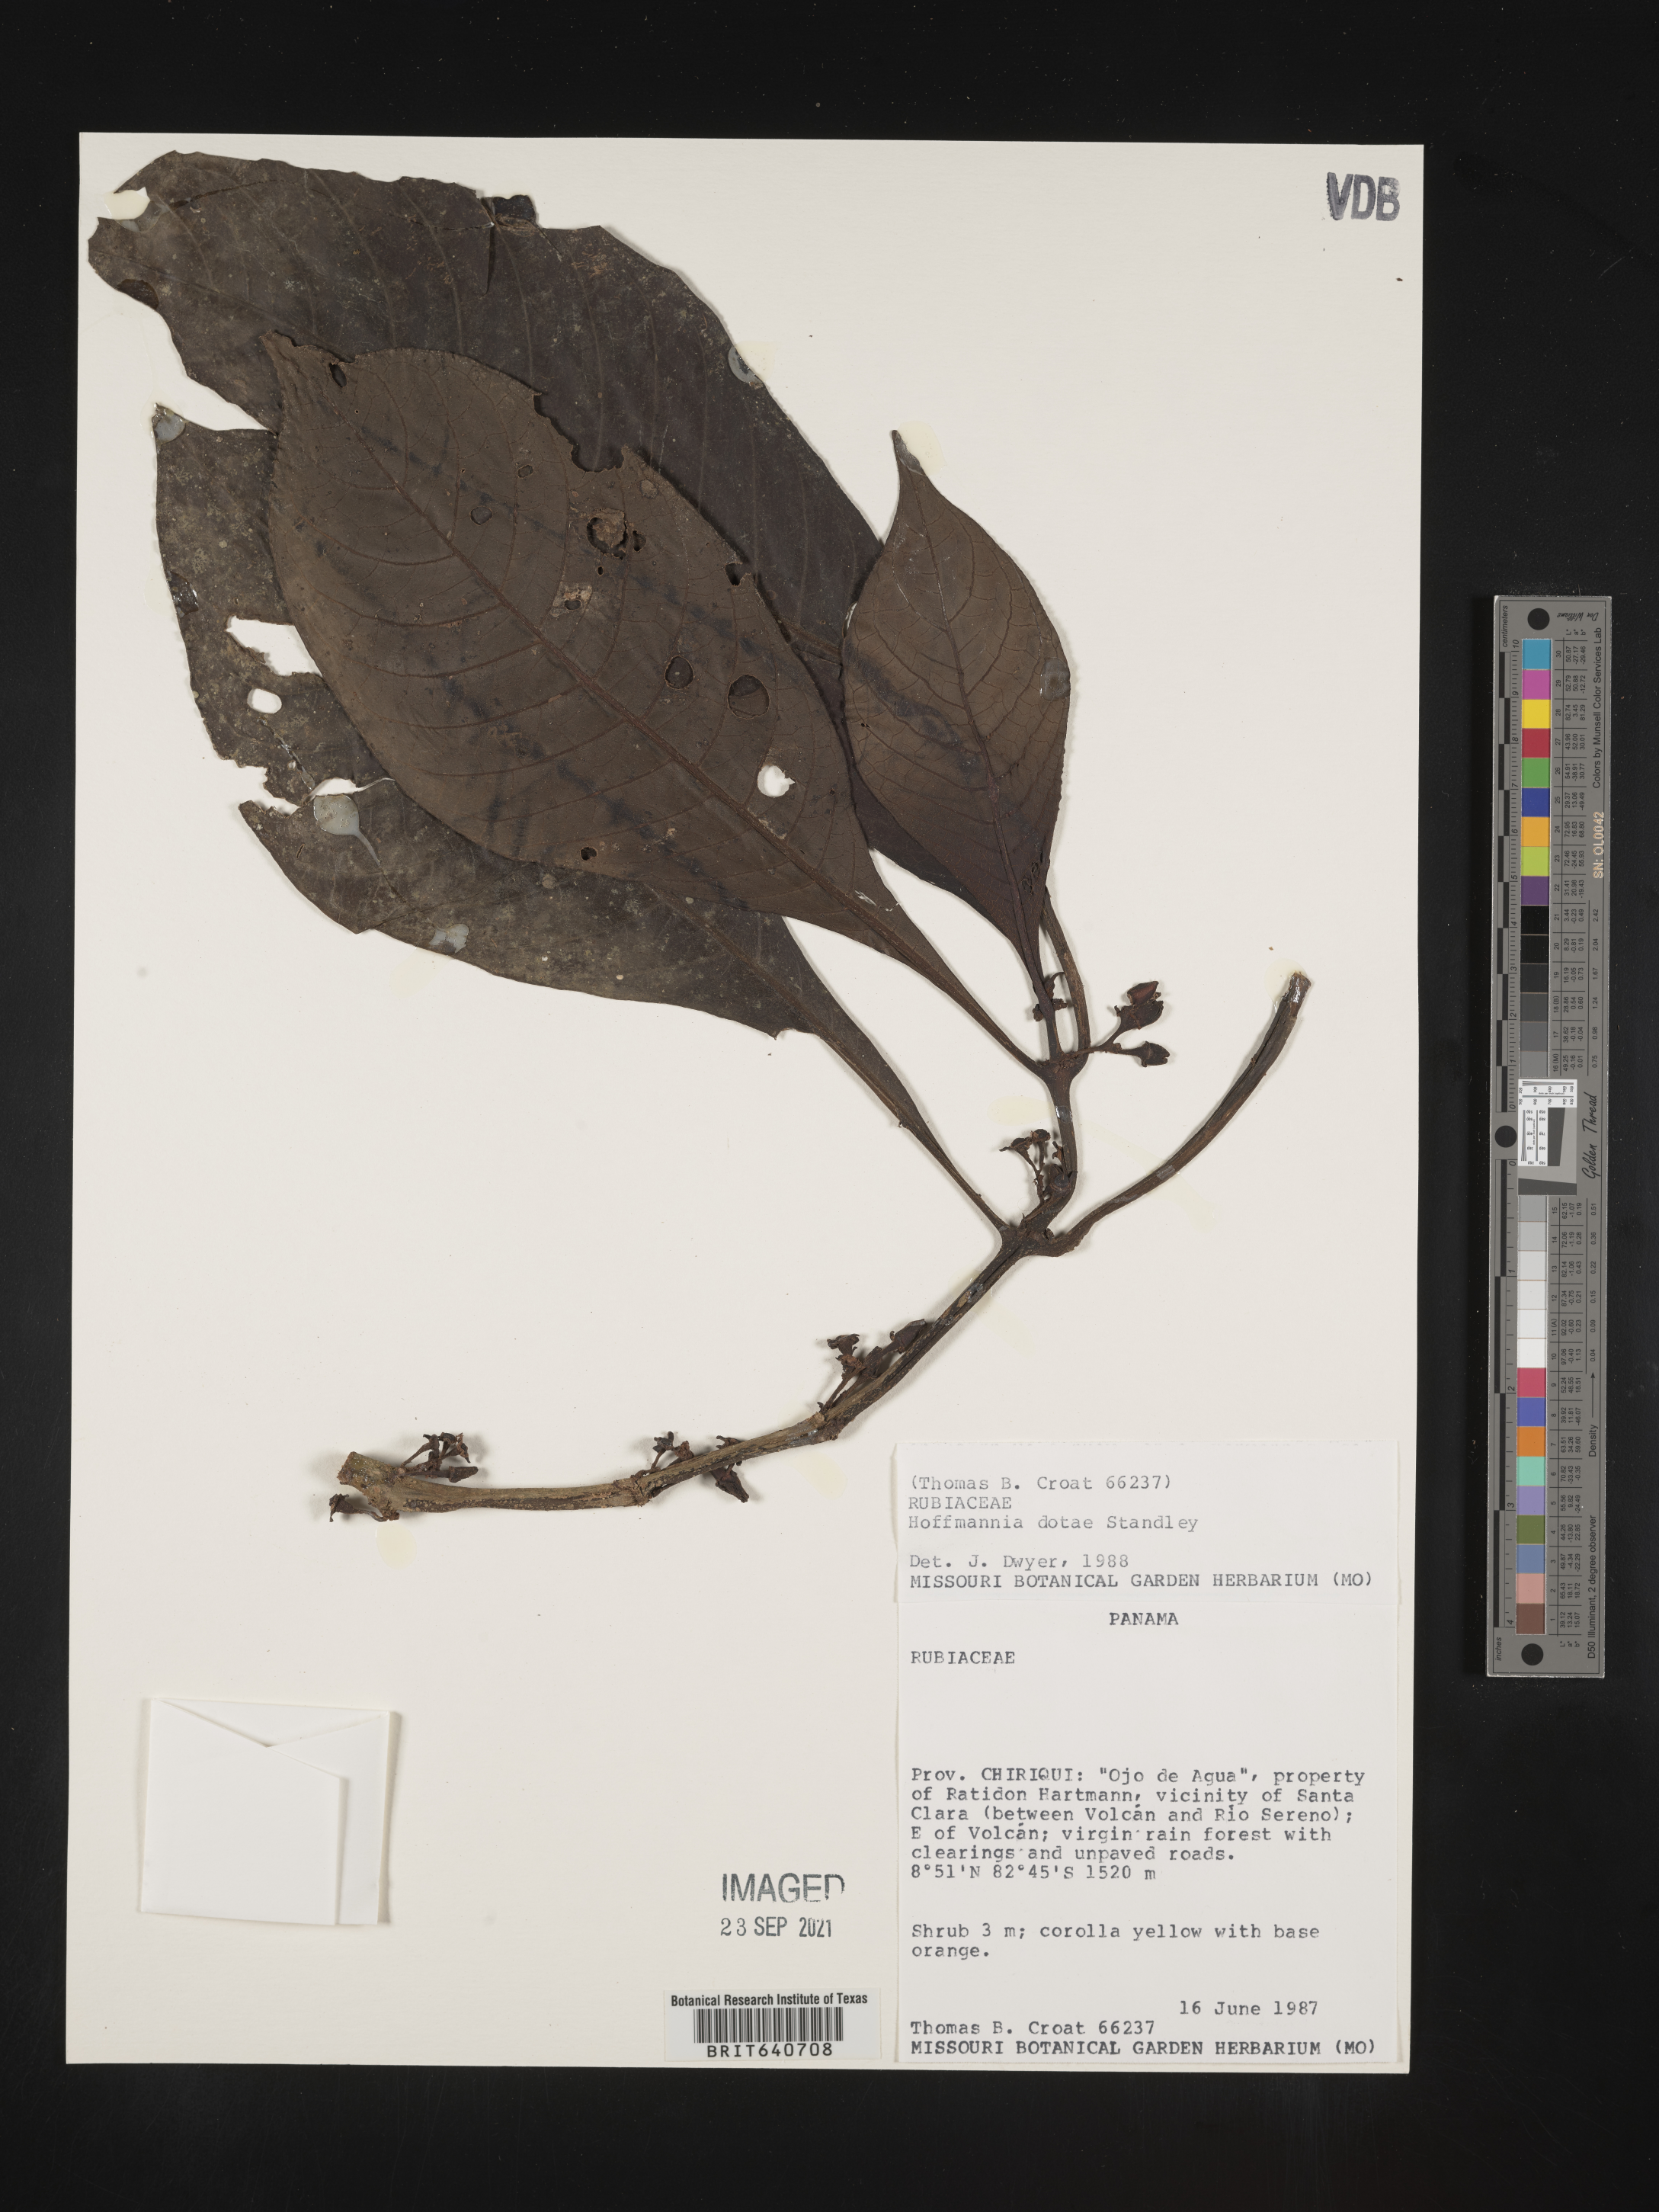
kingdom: Plantae
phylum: Tracheophyta
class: Magnoliopsida
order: Gentianales
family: Rubiaceae
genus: Hoffmannia
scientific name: Hoffmannia
